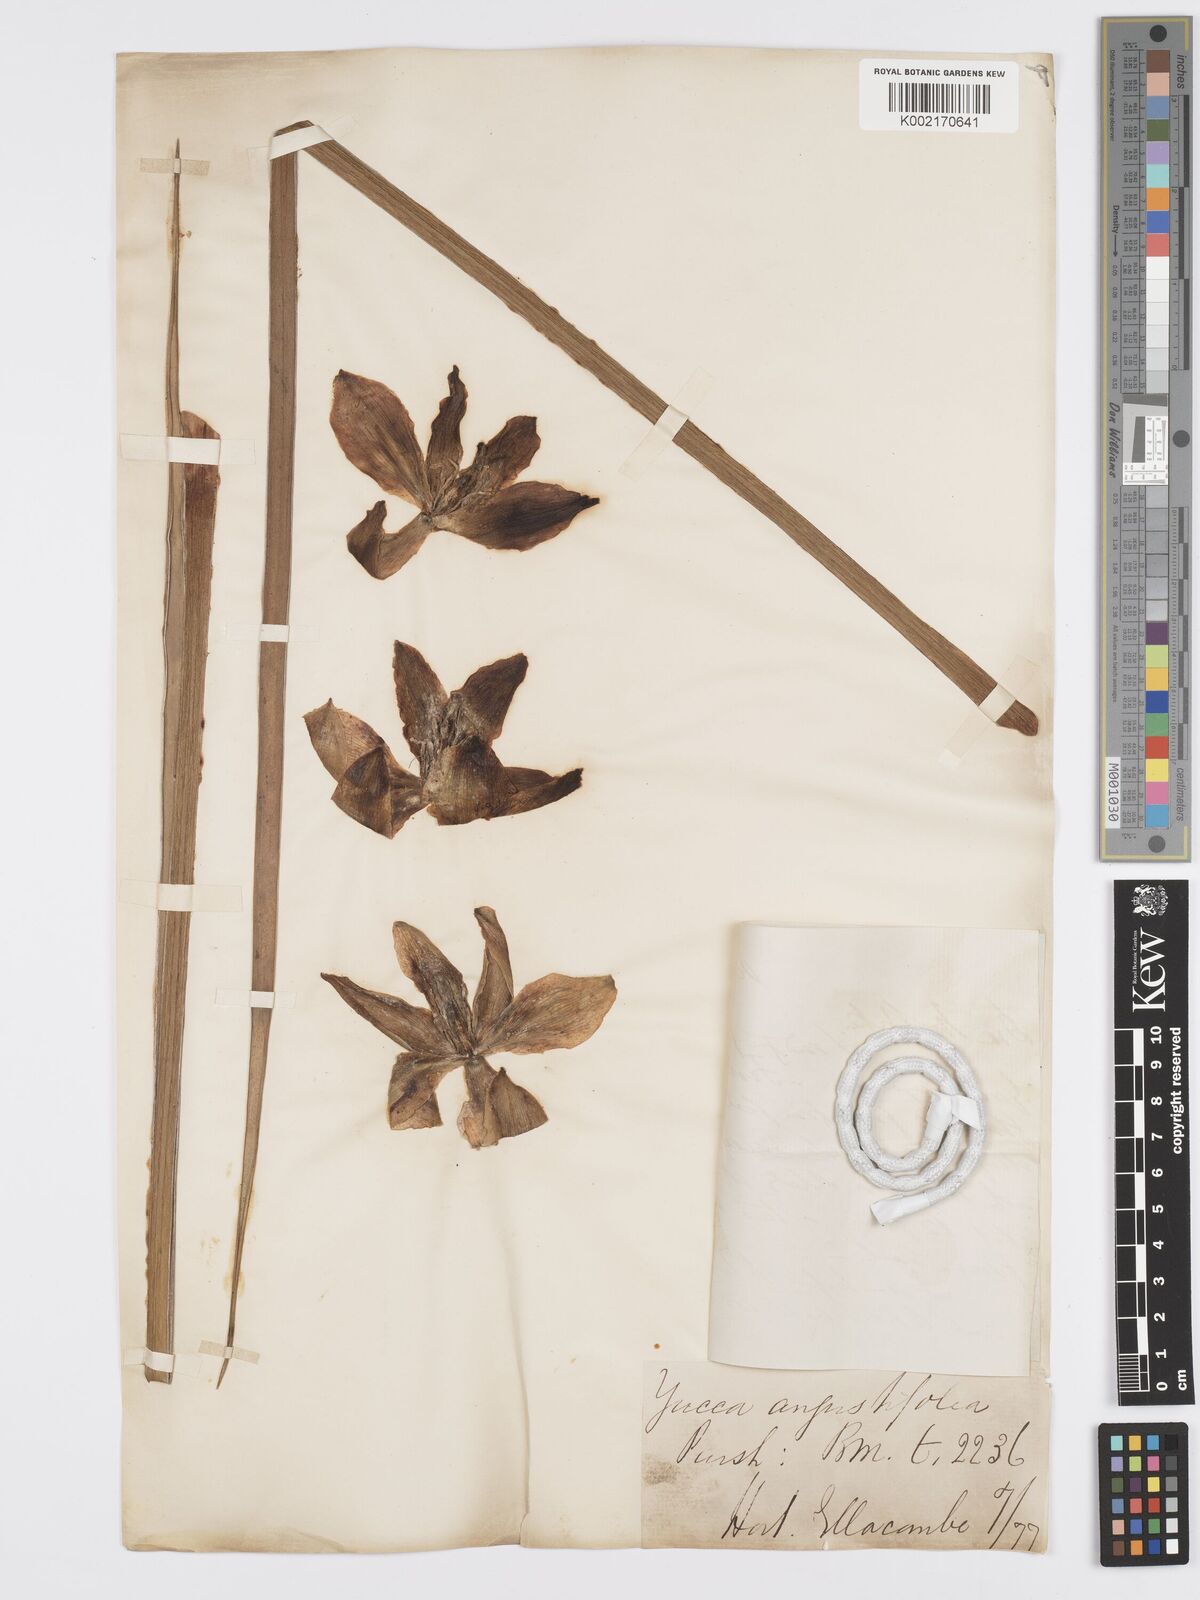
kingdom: Plantae
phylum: Tracheophyta
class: Liliopsida
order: Asparagales
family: Asparagaceae
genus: Yucca
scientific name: Yucca glauca
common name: Great plains yucca
